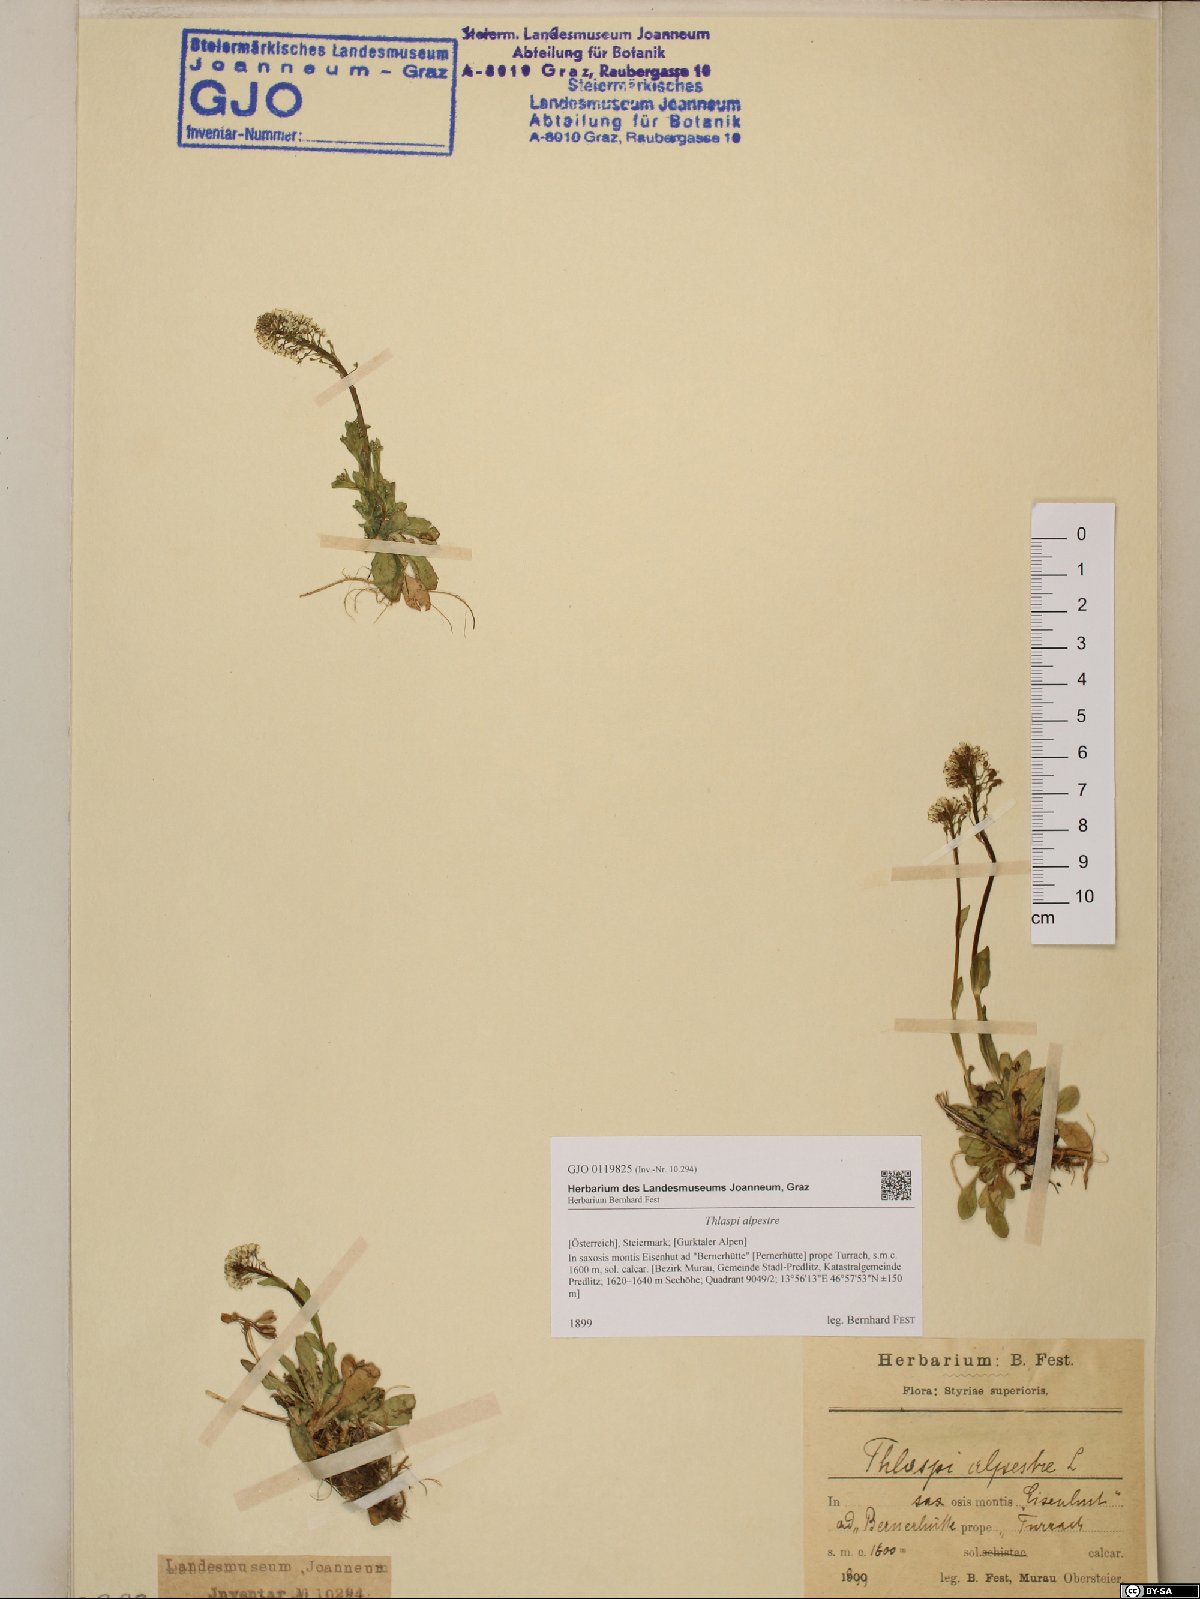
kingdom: Plantae
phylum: Tracheophyta
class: Magnoliopsida
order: Brassicales
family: Brassicaceae
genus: Noccaea
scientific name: Noccaea caerulescens
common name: Alpine pennycress
